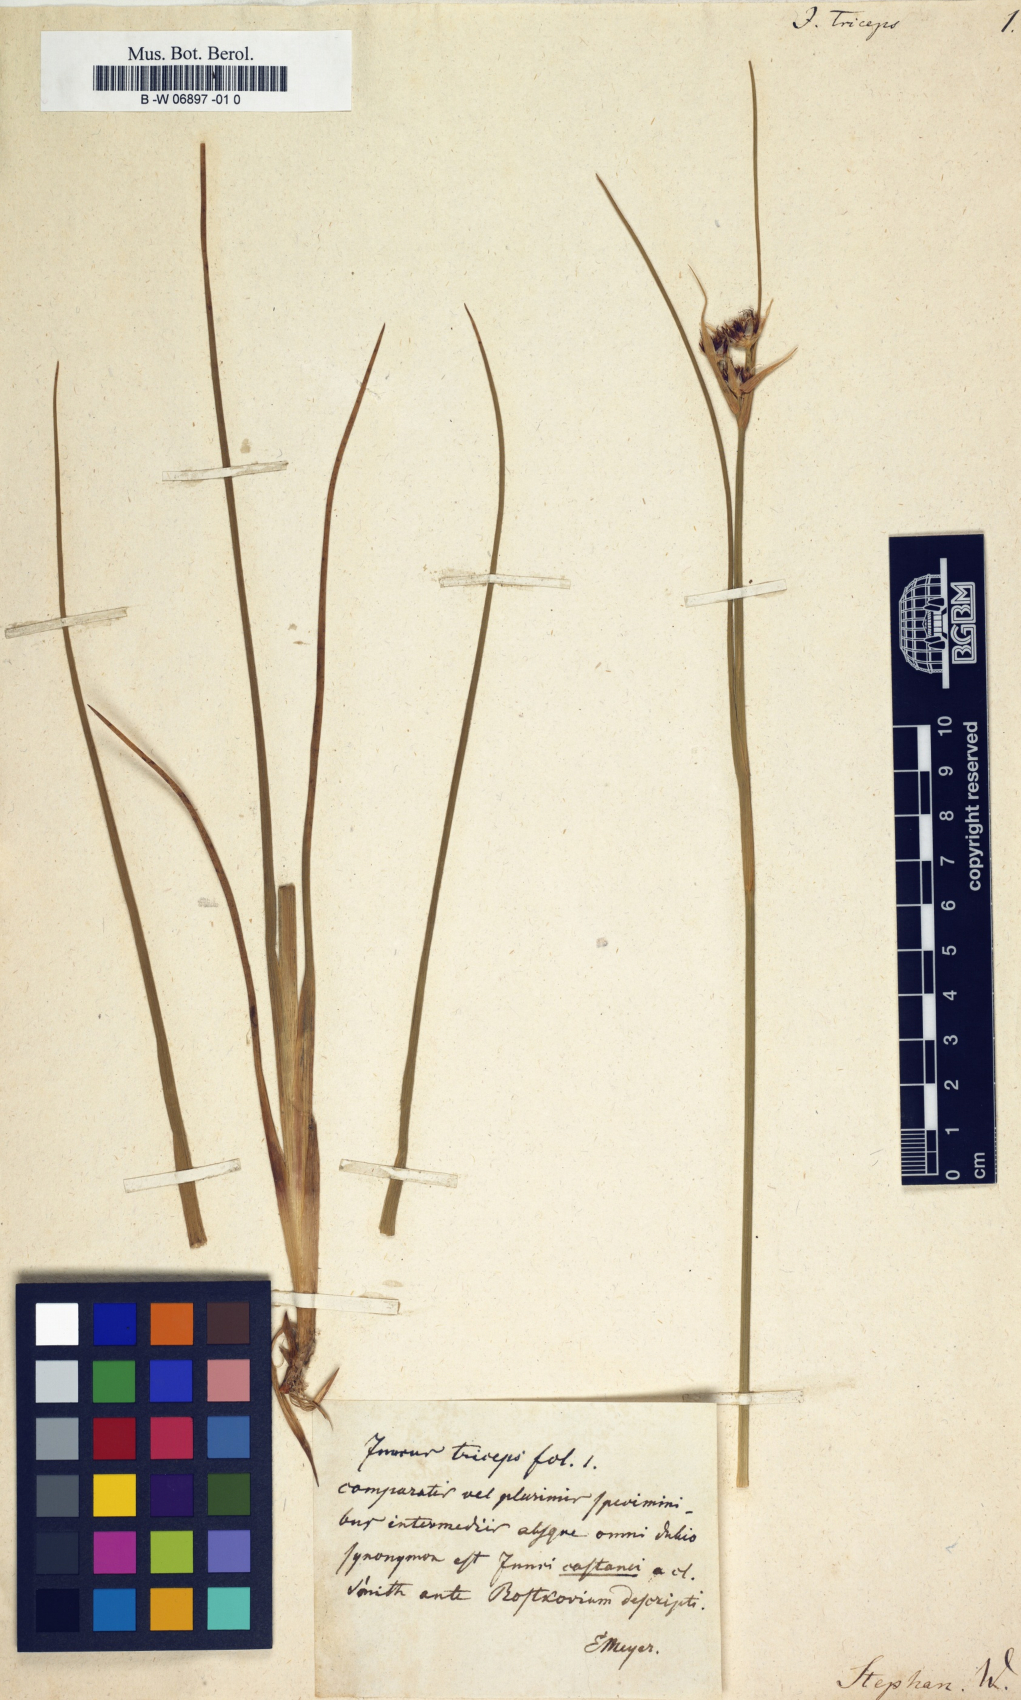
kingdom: Plantae
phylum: Tracheophyta
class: Liliopsida
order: Poales
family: Juncaceae
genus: Juncus
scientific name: Juncus castaneus
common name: Chestnut rush
